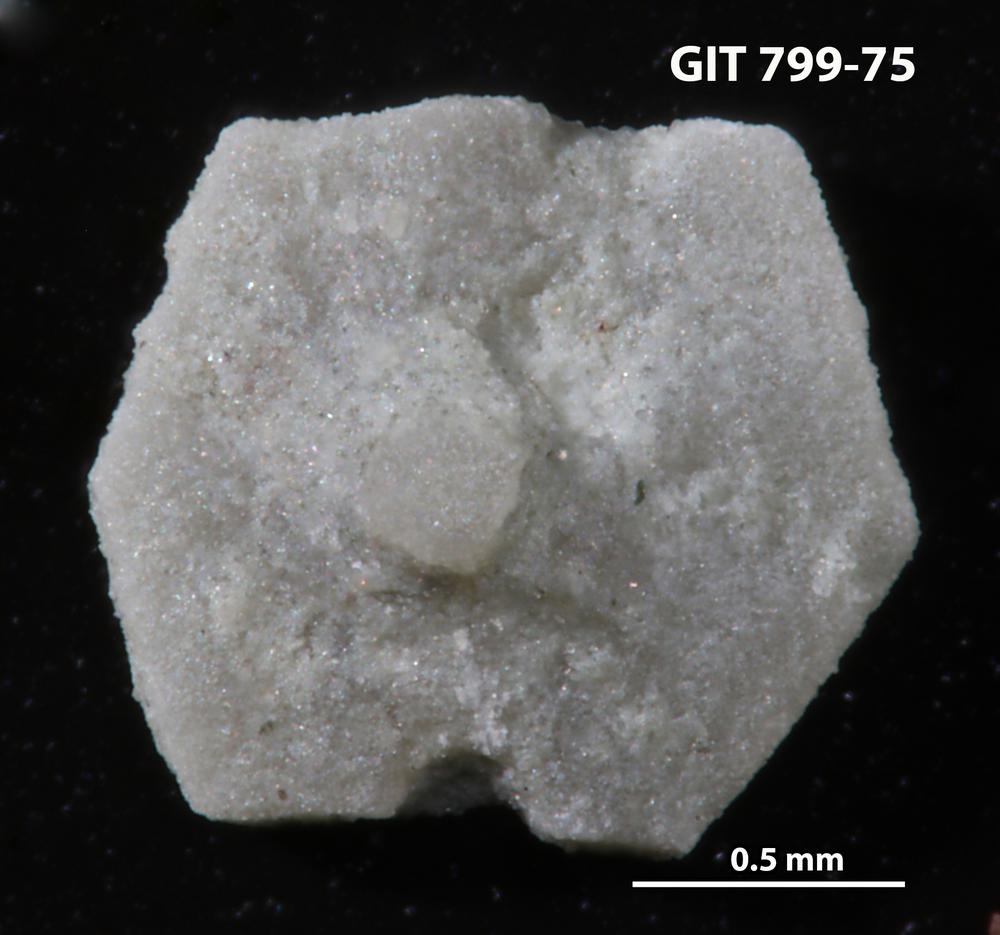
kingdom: Animalia
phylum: Echinodermata
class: Echinoidea
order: Bothriocidaroida
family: Bothriocidaridae
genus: Neobothriocidaris
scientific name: Neobothriocidaris
